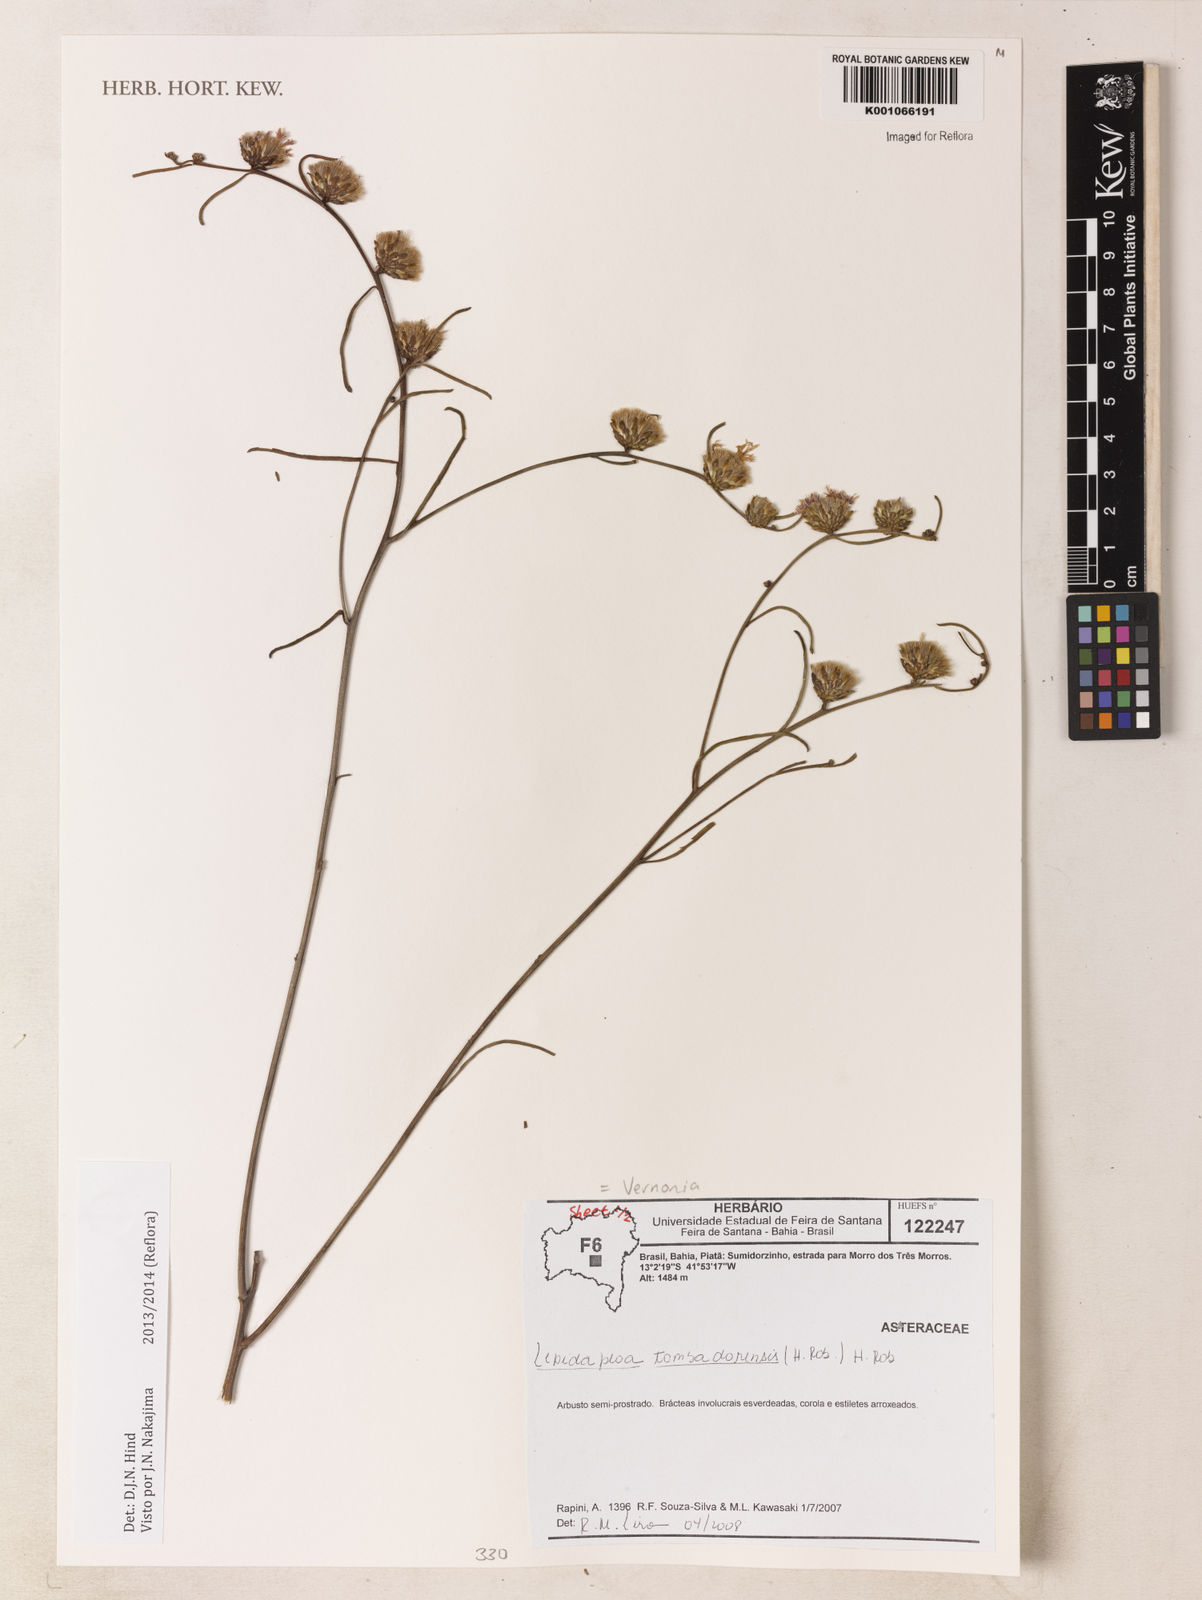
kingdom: Plantae
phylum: Tracheophyta
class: Magnoliopsida
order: Asterales
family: Asteraceae
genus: Lepidaploa
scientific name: Lepidaploa tombadorensis
